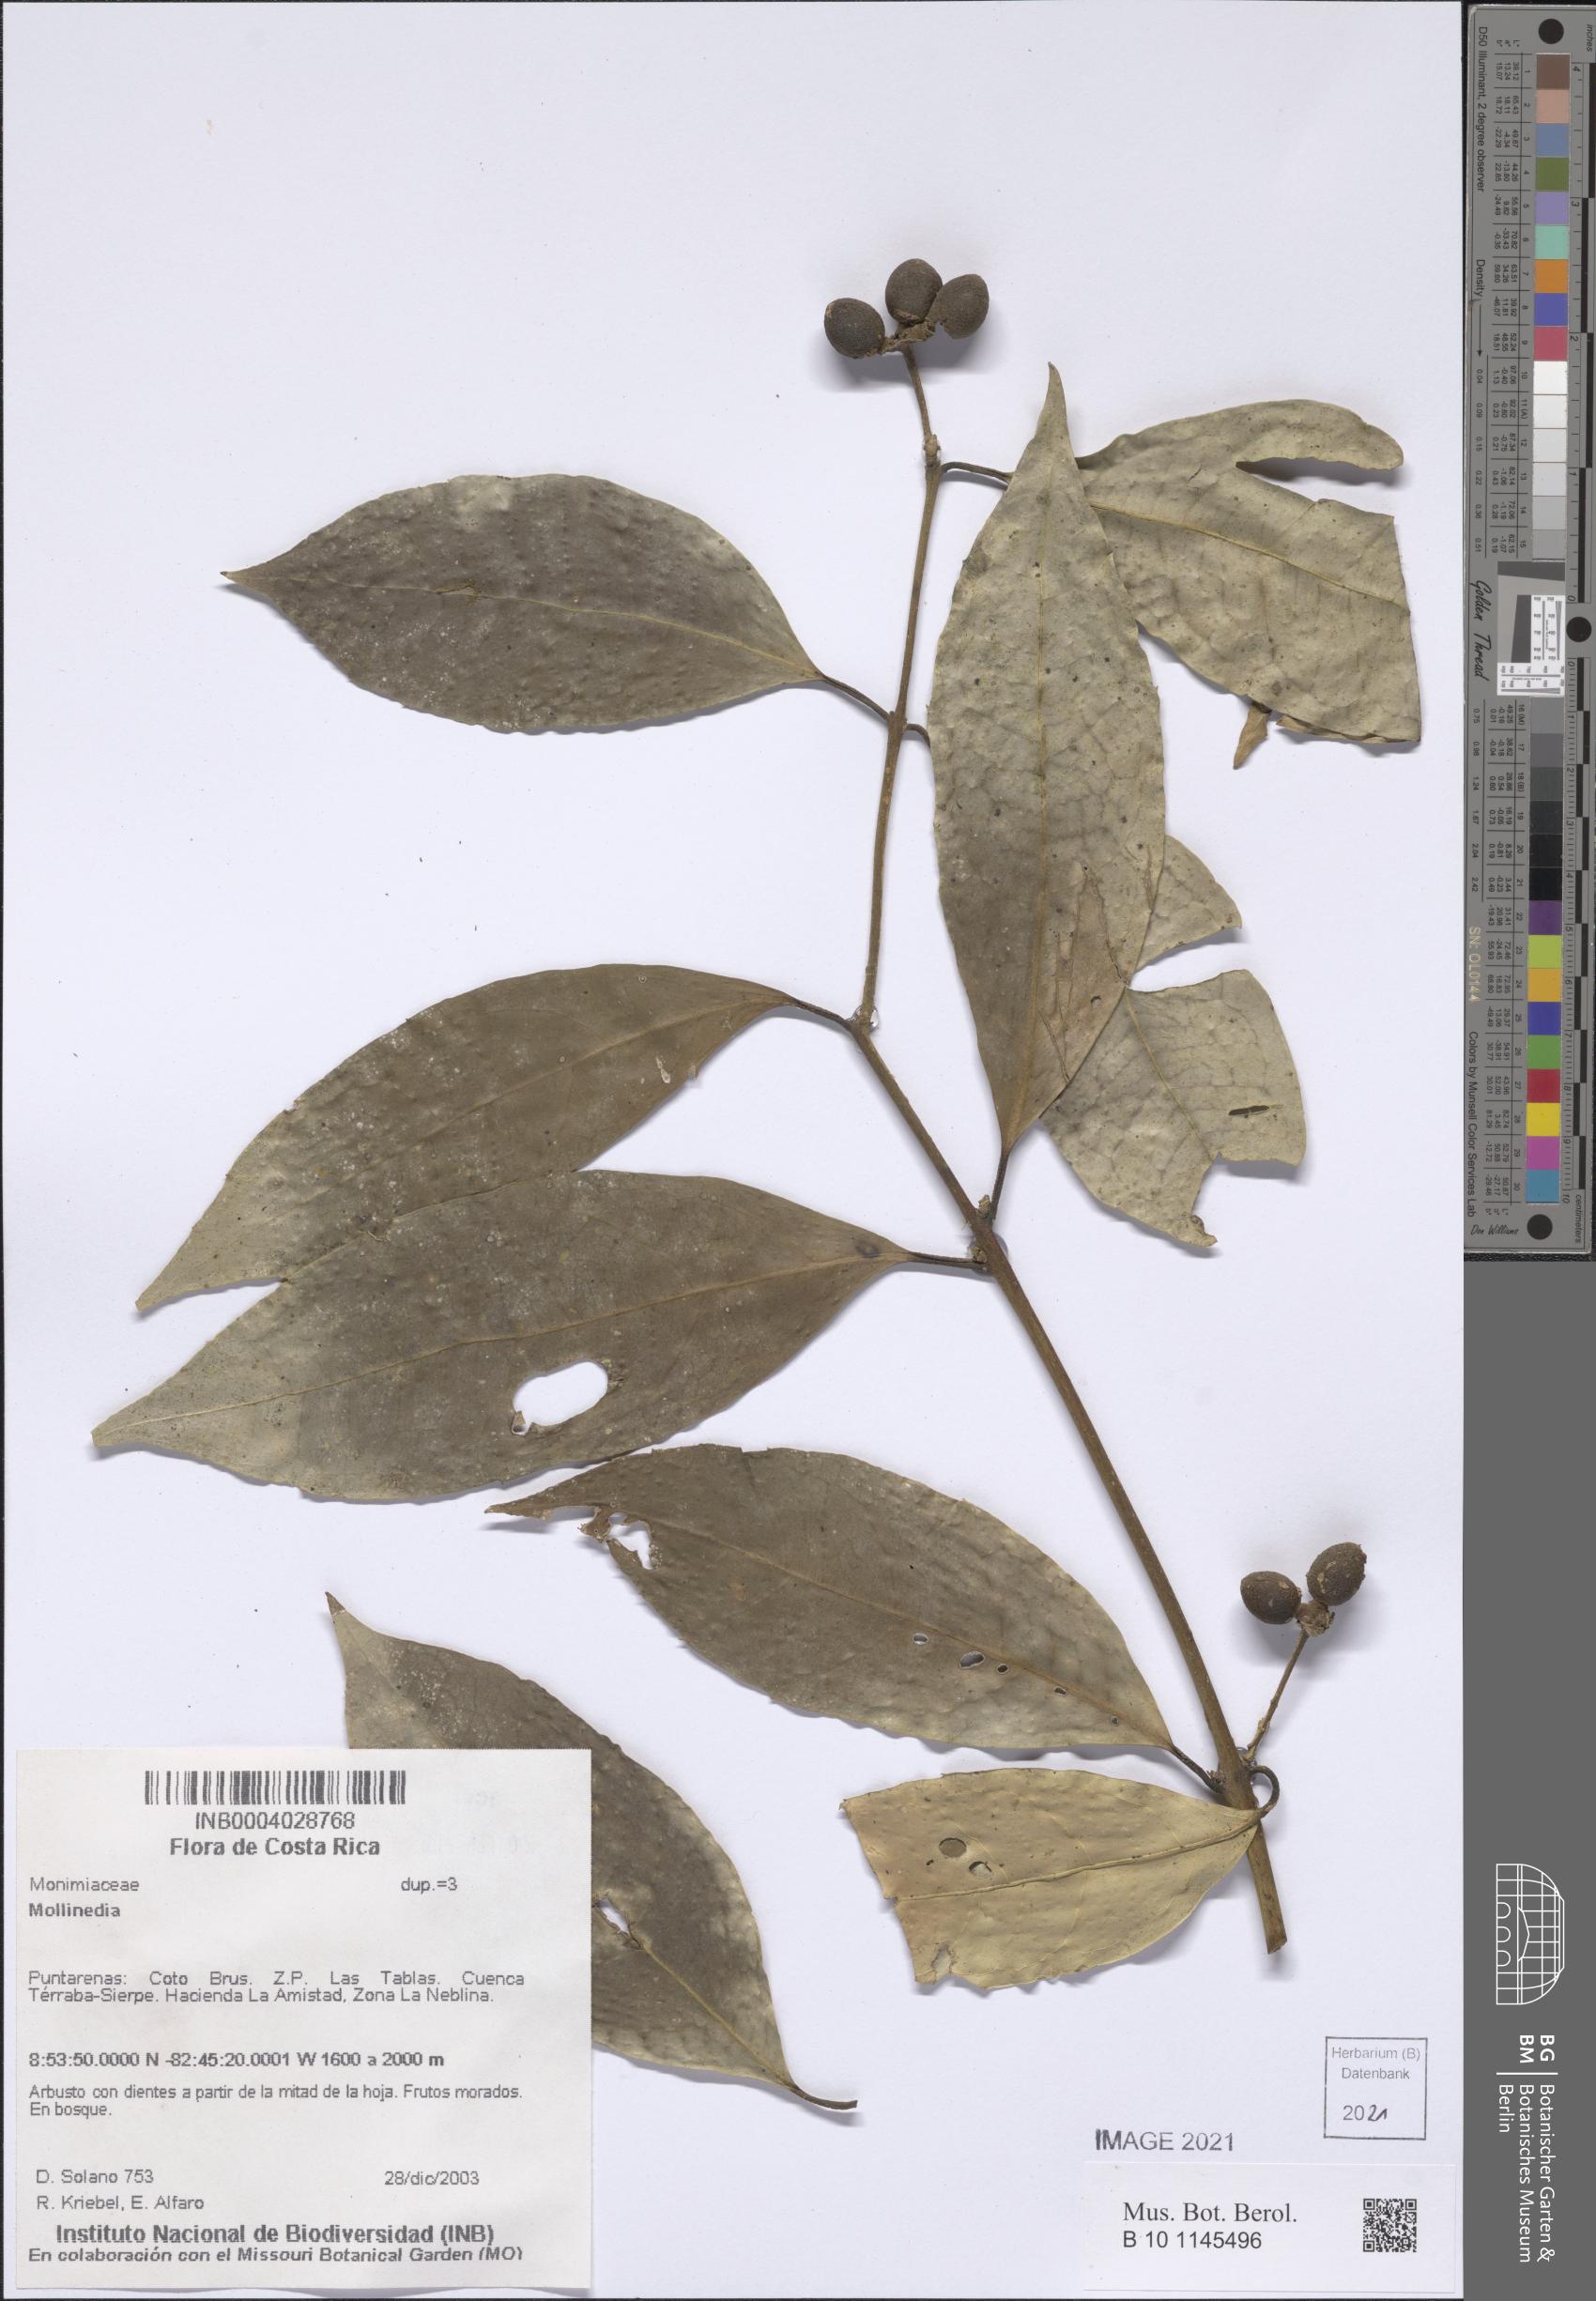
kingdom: Plantae
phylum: Tracheophyta
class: Magnoliopsida
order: Laurales
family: Monimiaceae
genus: Mollinedia
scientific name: Mollinedia viridiflora
